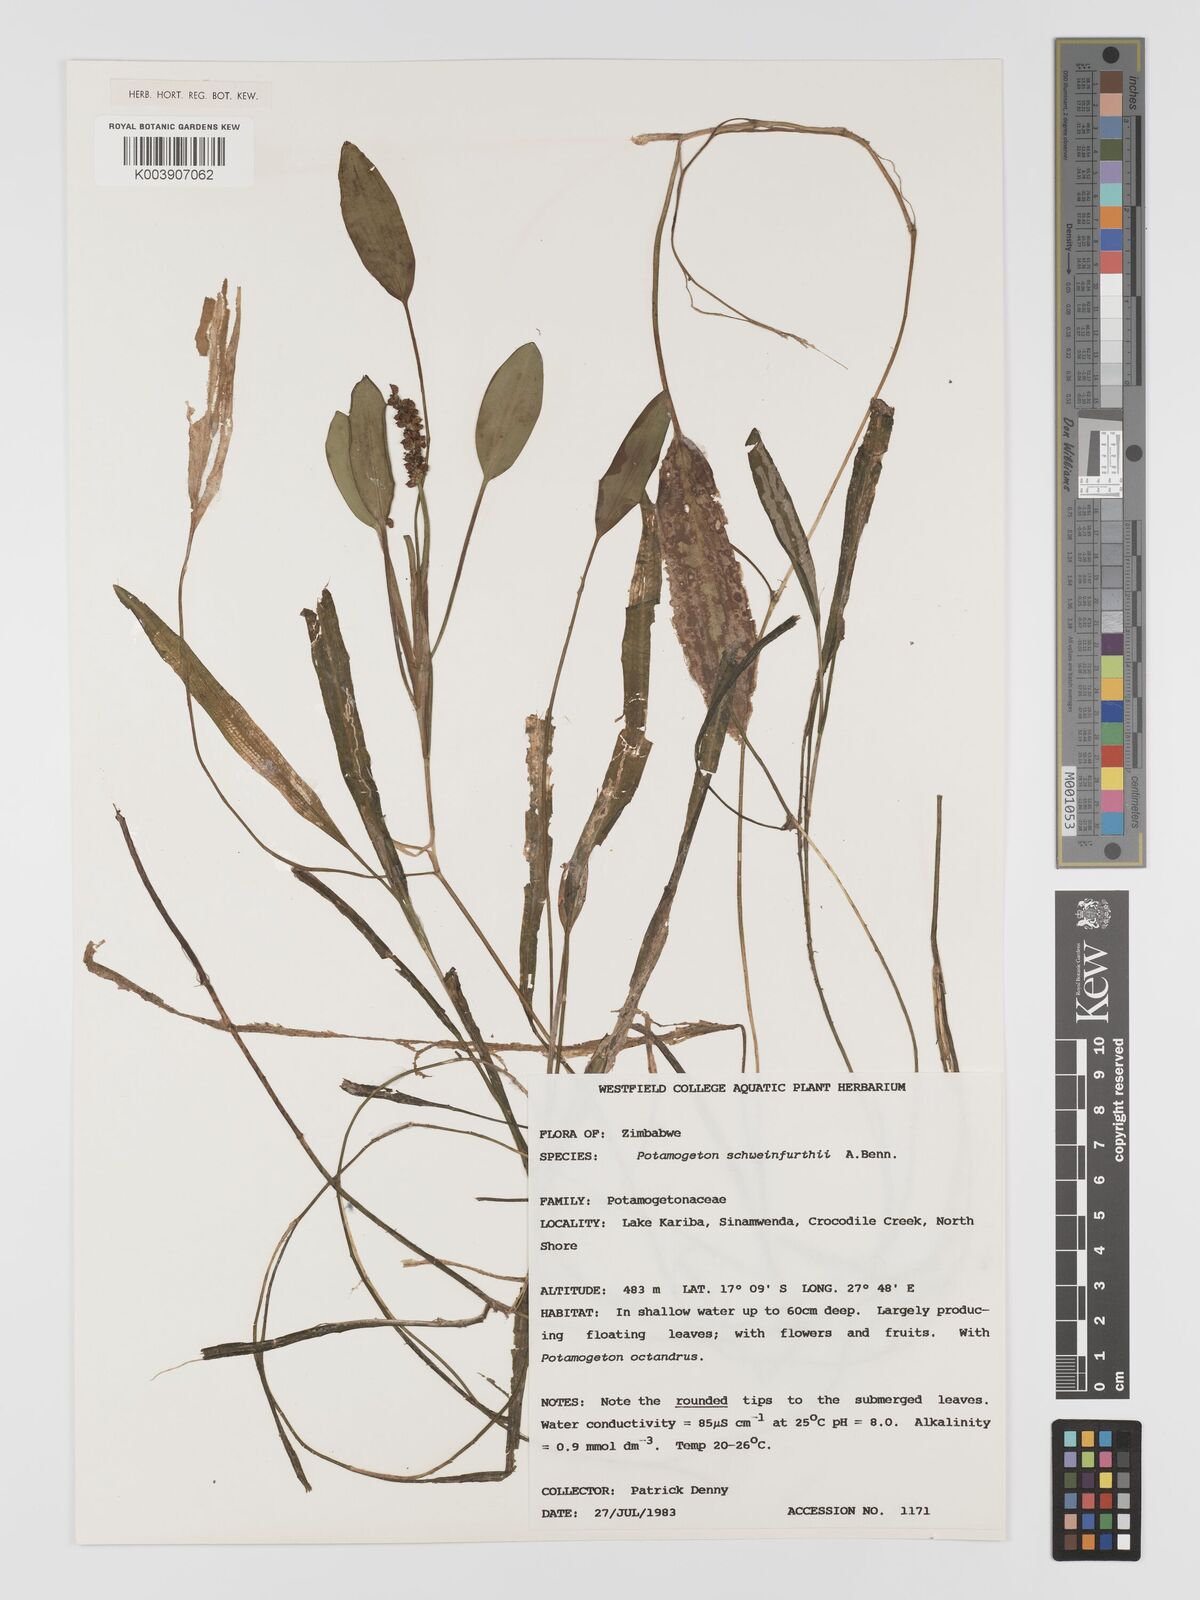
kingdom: Plantae
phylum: Tracheophyta
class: Liliopsida
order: Alismatales
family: Potamogetonaceae
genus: Potamogeton
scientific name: Potamogeton schweinfurthii
